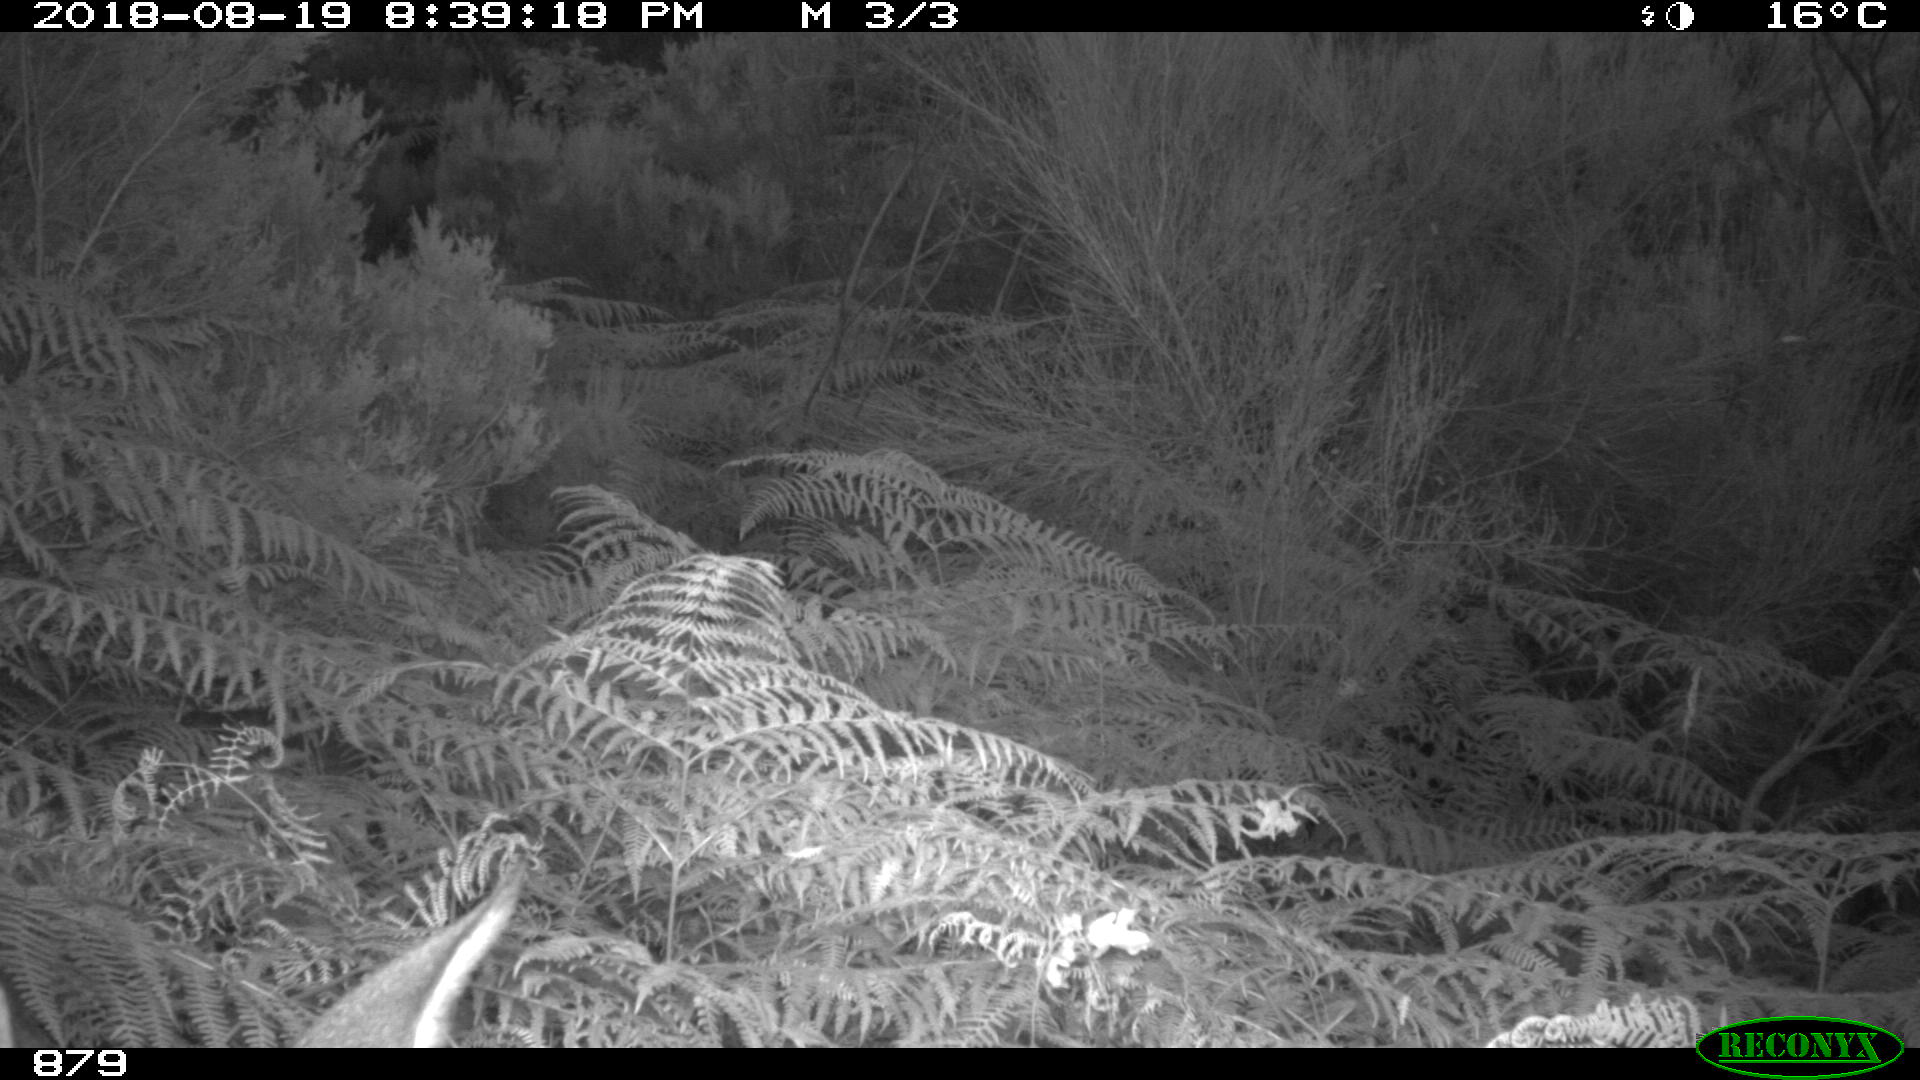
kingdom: Animalia
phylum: Chordata
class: Mammalia
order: Artiodactyla
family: Cervidae
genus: Capreolus
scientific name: Capreolus capreolus
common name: Western roe deer
